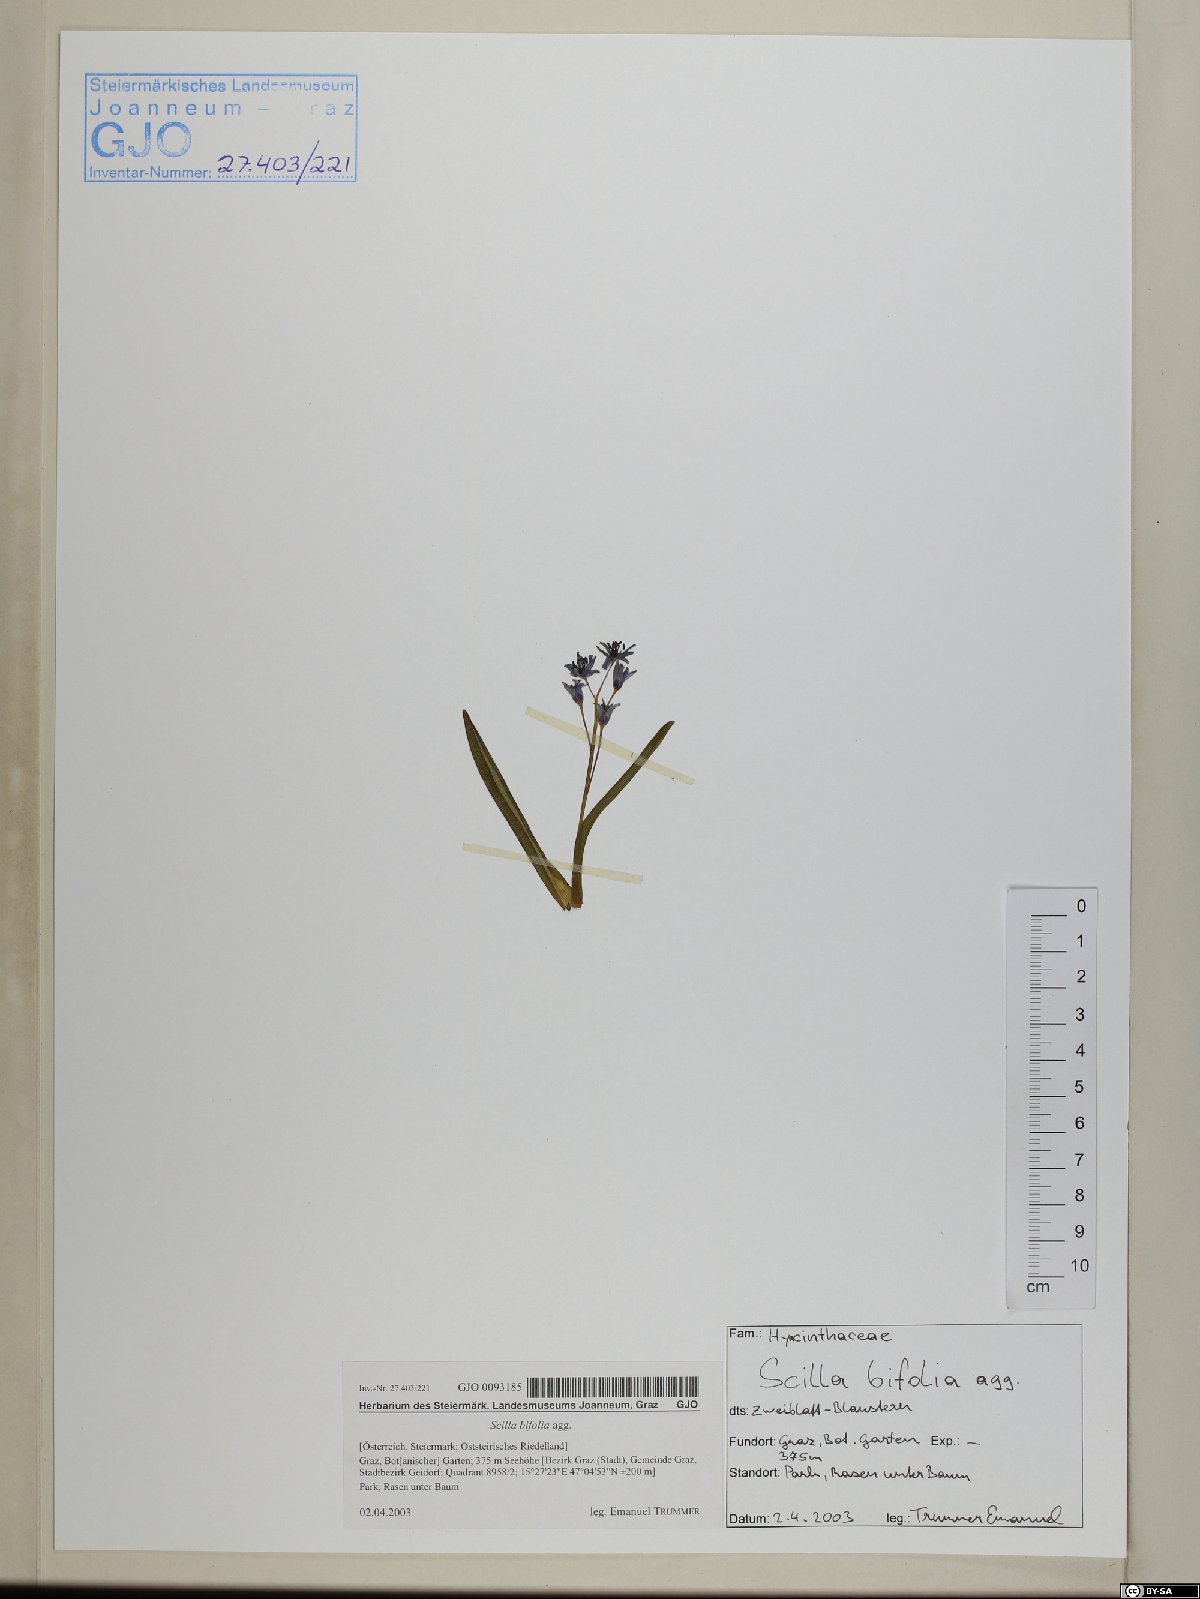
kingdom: Plantae
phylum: Tracheophyta
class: Liliopsida
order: Asparagales
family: Asparagaceae
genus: Scilla
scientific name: Scilla bifolia
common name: Alpine squill
